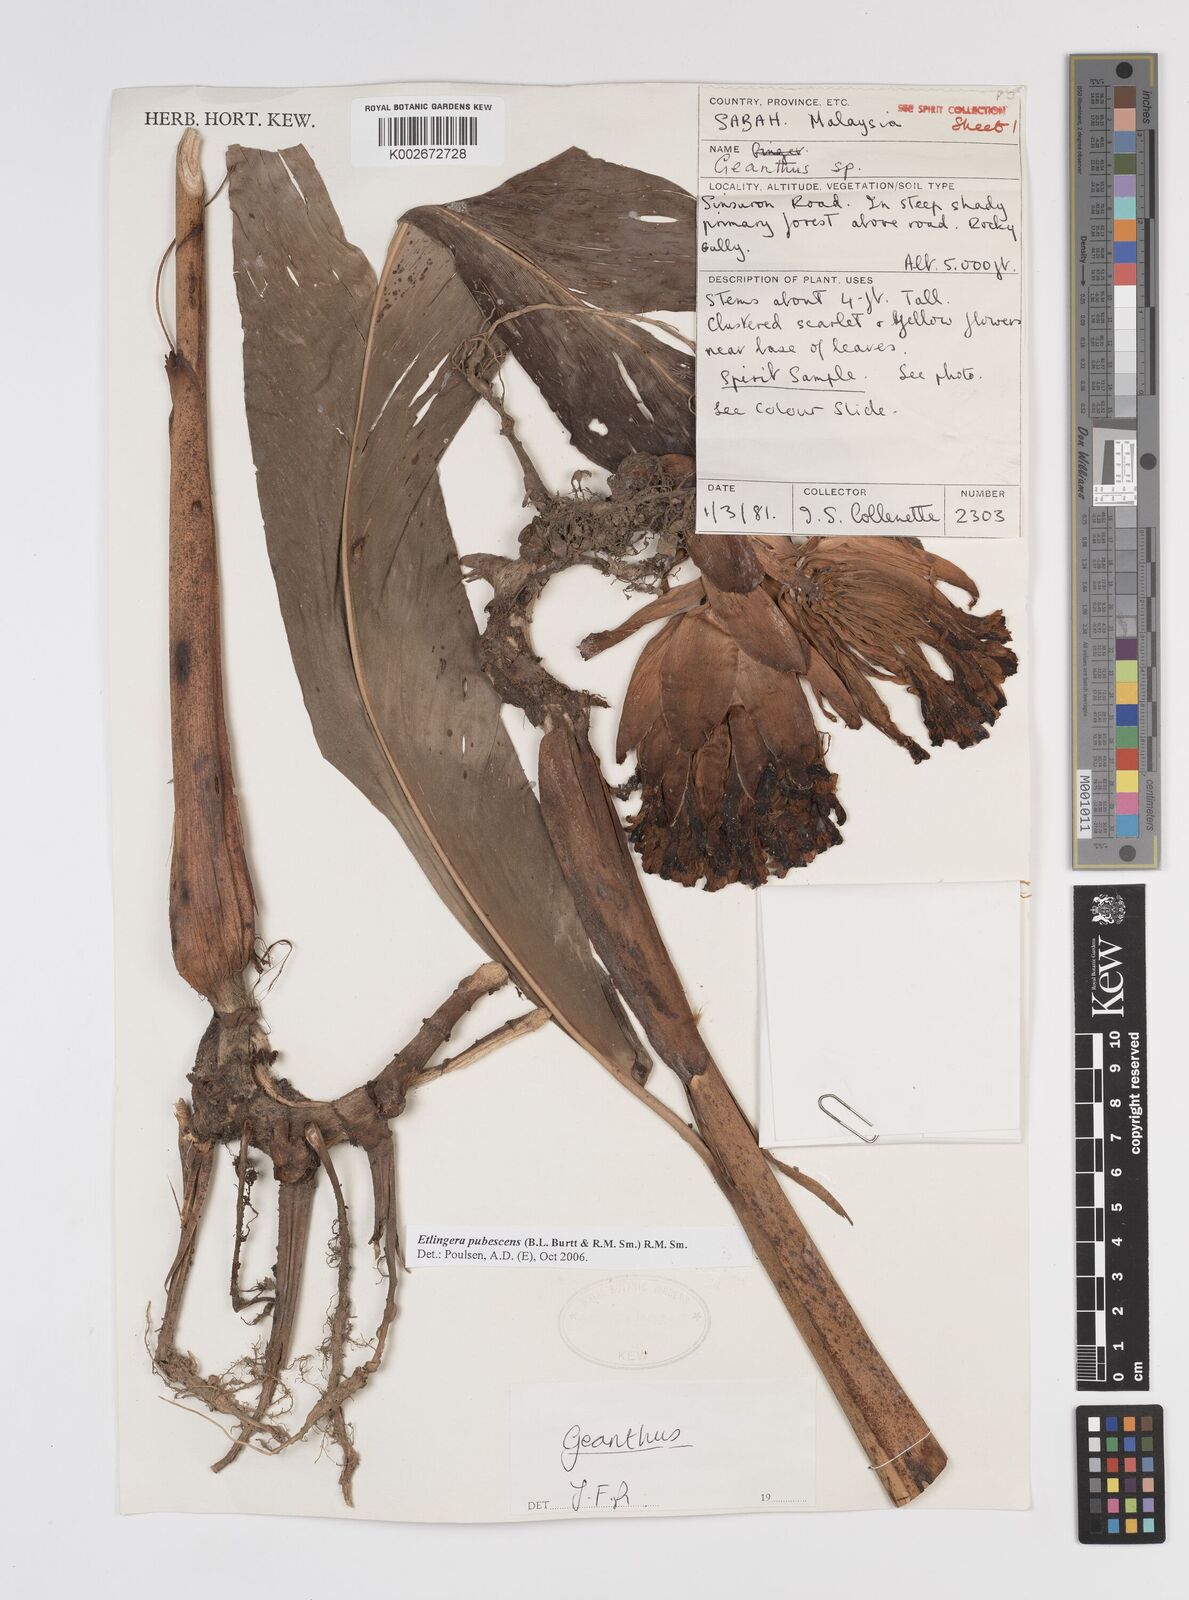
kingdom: Plantae
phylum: Tracheophyta
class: Liliopsida
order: Zingiberales
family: Zingiberaceae
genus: Etlingera
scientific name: Etlingera pubescens
